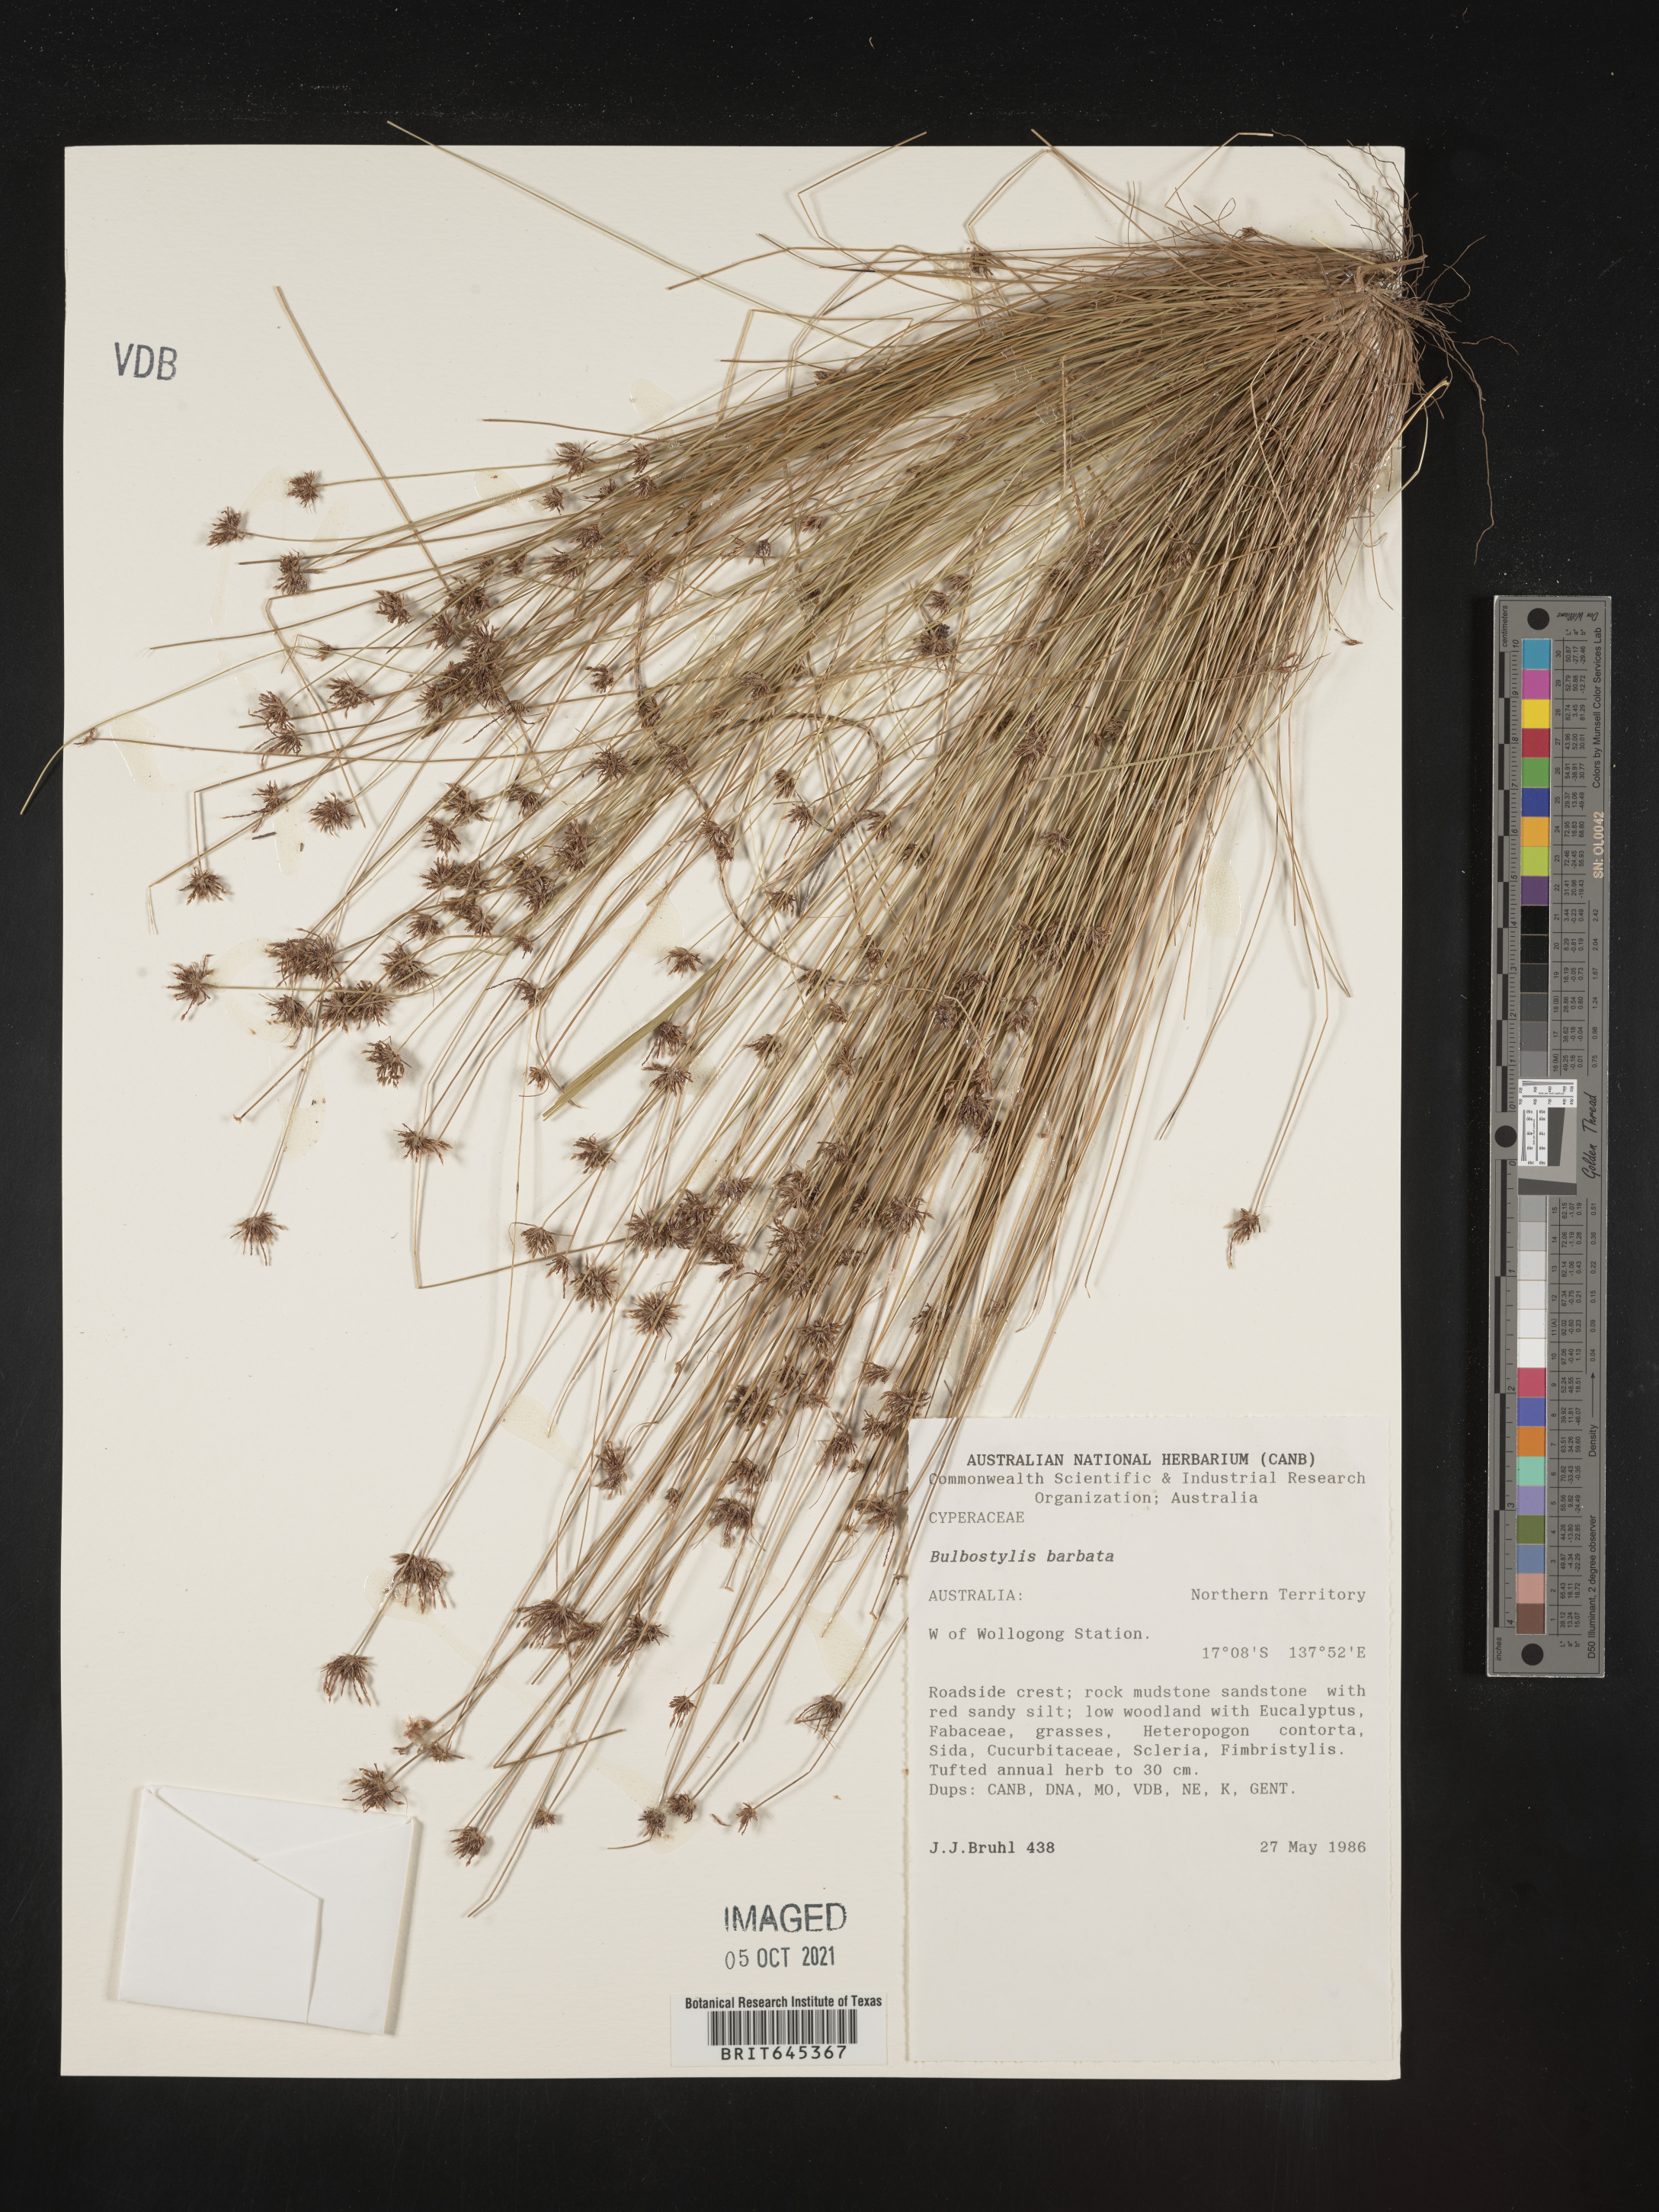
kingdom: Plantae
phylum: Tracheophyta
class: Liliopsida
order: Poales
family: Cyperaceae
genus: Bulbostylis
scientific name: Bulbostylis barbata
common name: Watergrass
